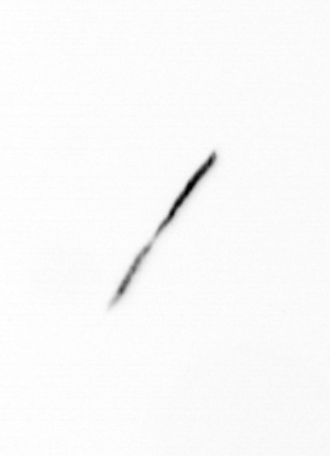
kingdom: Bacteria
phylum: Cyanobacteria
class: Cyanobacteriia
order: Cyanobacteriales
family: Microcoleaceae
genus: Trichodesmium
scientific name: Trichodesmium
